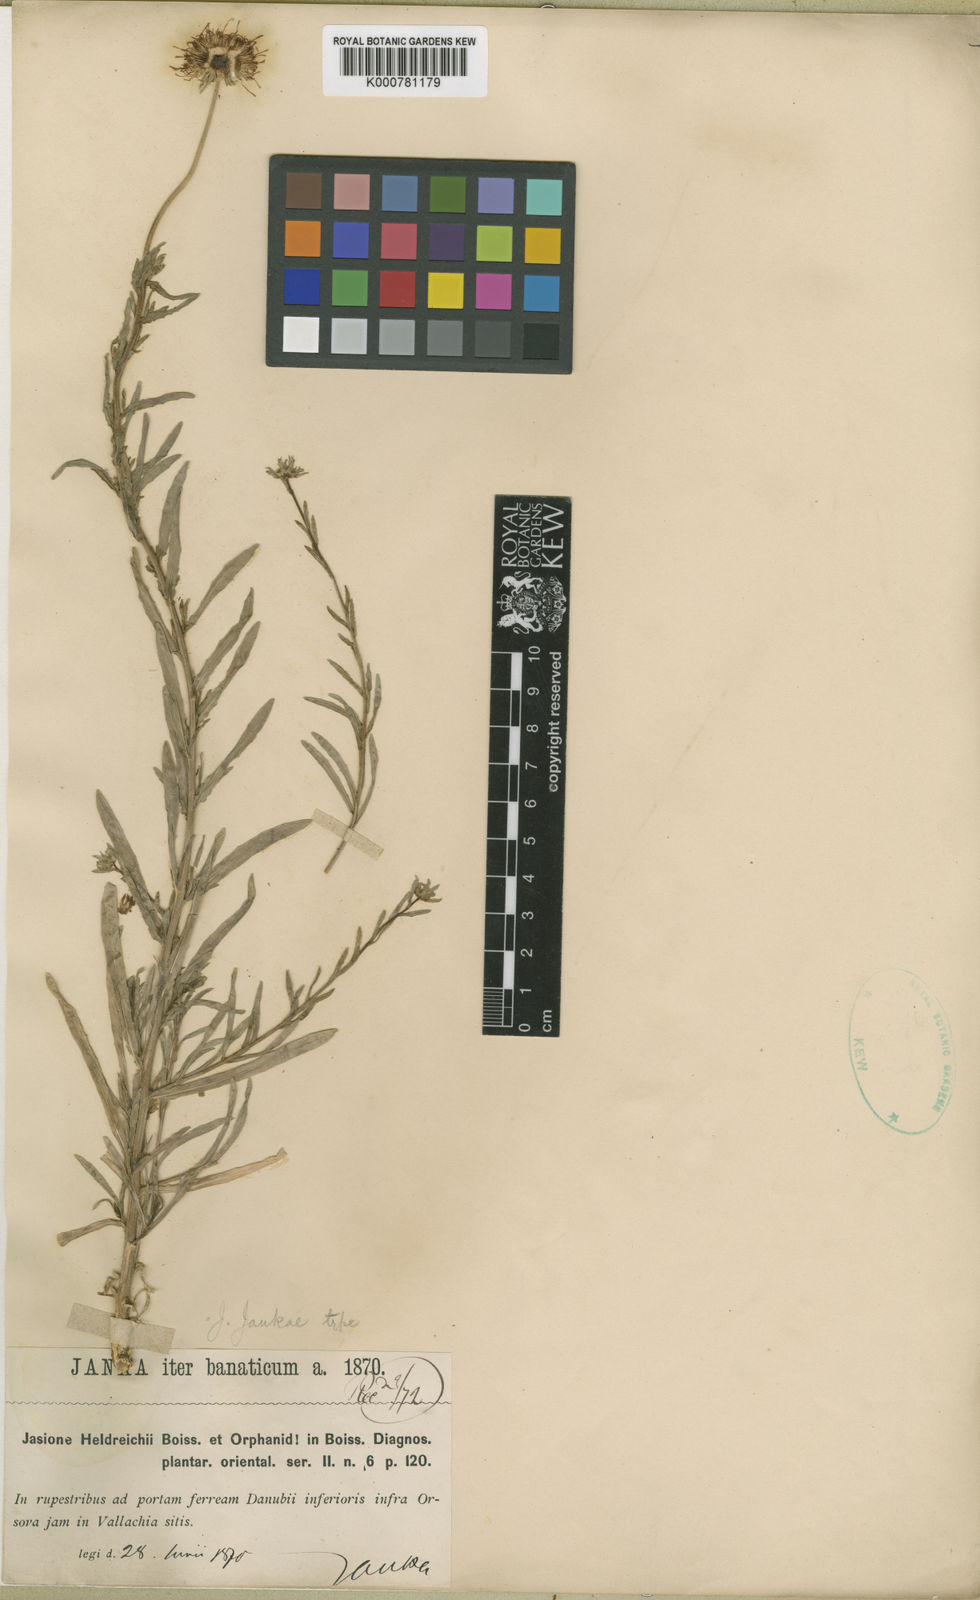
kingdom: Plantae
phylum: Tracheophyta
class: Magnoliopsida
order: Asterales
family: Campanulaceae
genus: Jasione
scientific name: Jasione heldreichii
